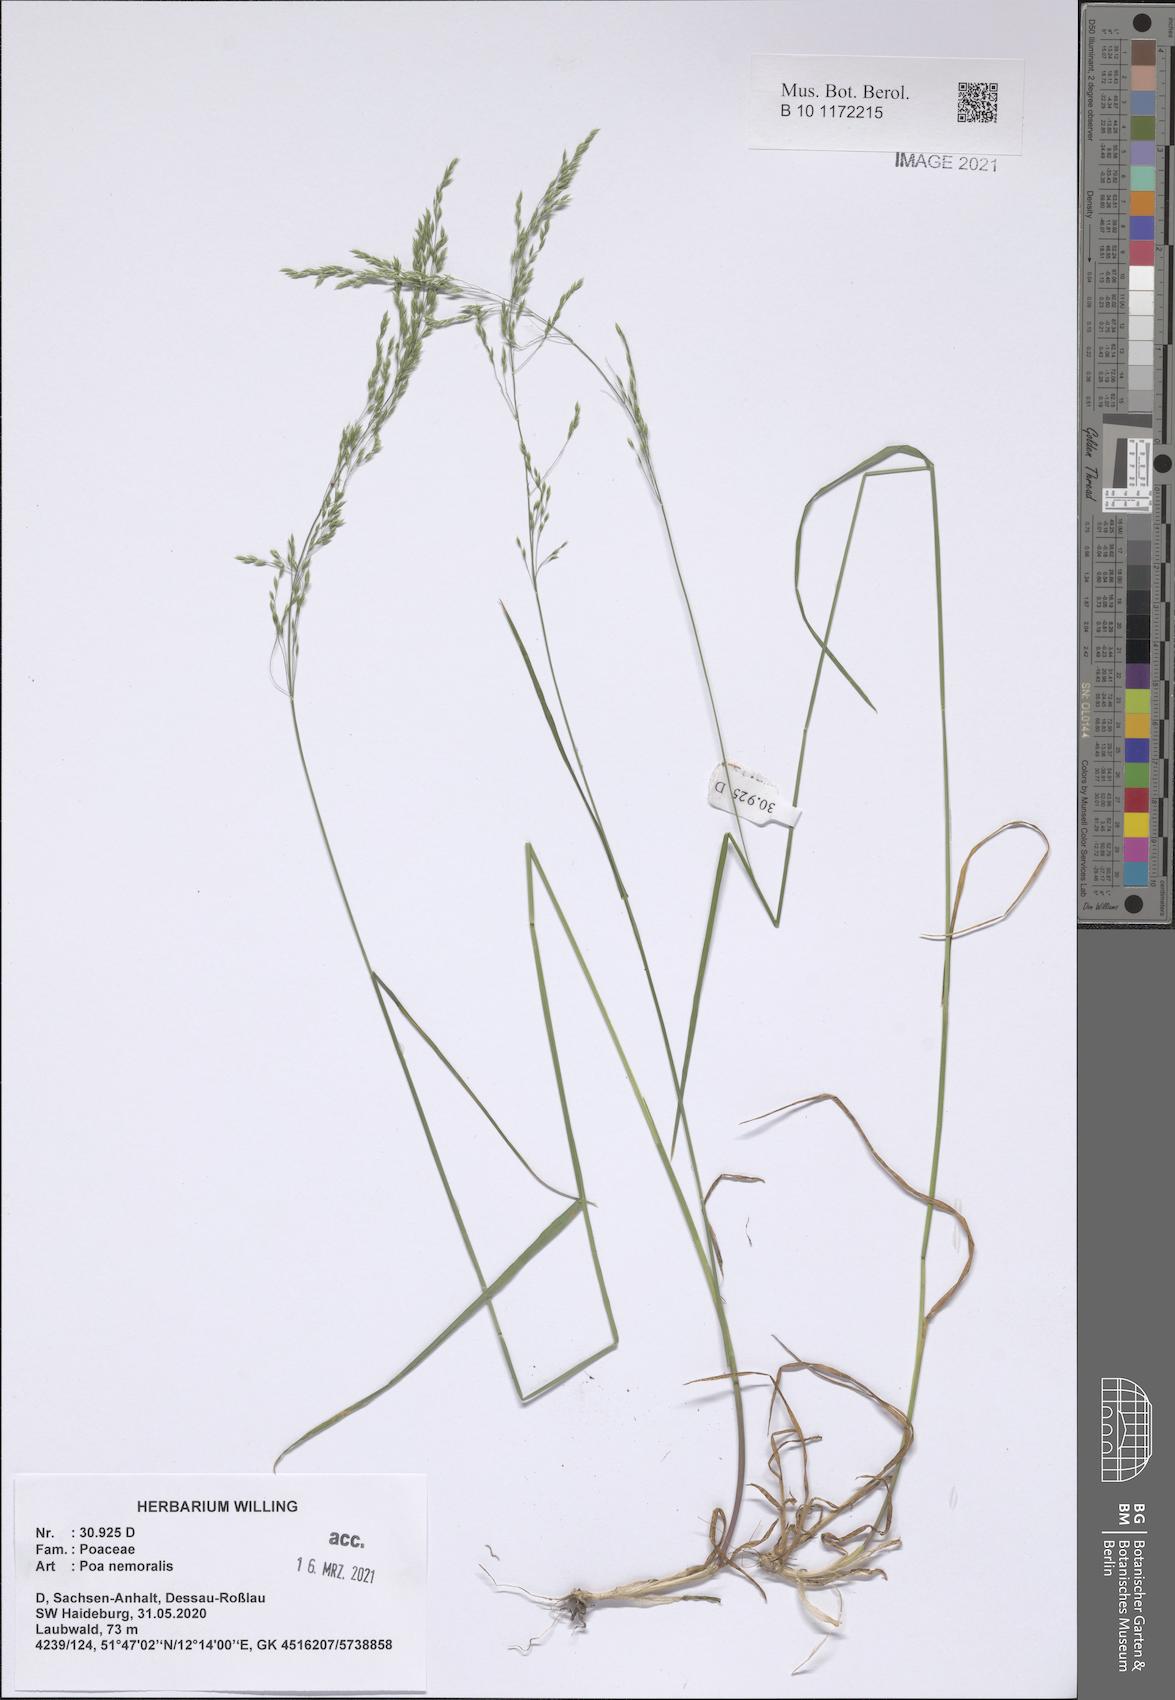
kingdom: Plantae
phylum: Tracheophyta
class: Liliopsida
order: Poales
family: Poaceae
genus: Poa
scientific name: Poa nemoralis
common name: Wood bluegrass
